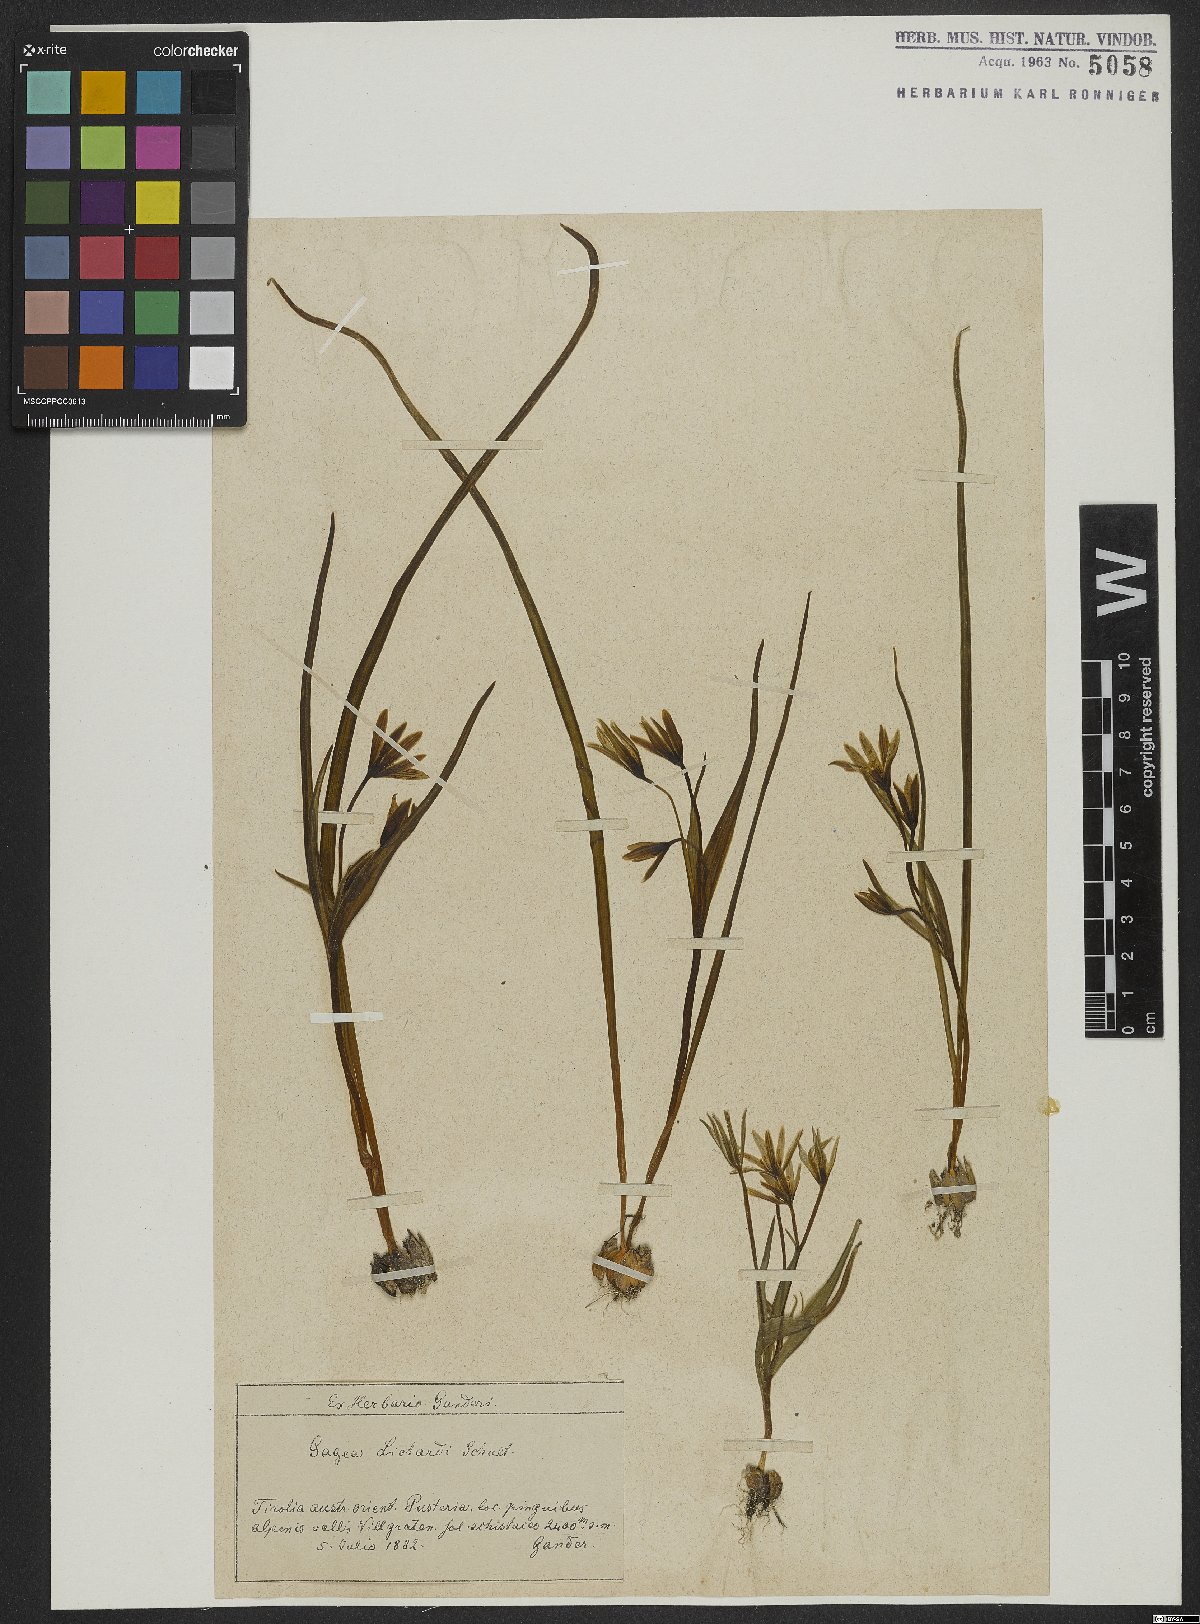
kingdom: Plantae
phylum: Tracheophyta
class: Liliopsida
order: Liliales
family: Liliaceae
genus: Gagea
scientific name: Gagea fragifera
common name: Lily
